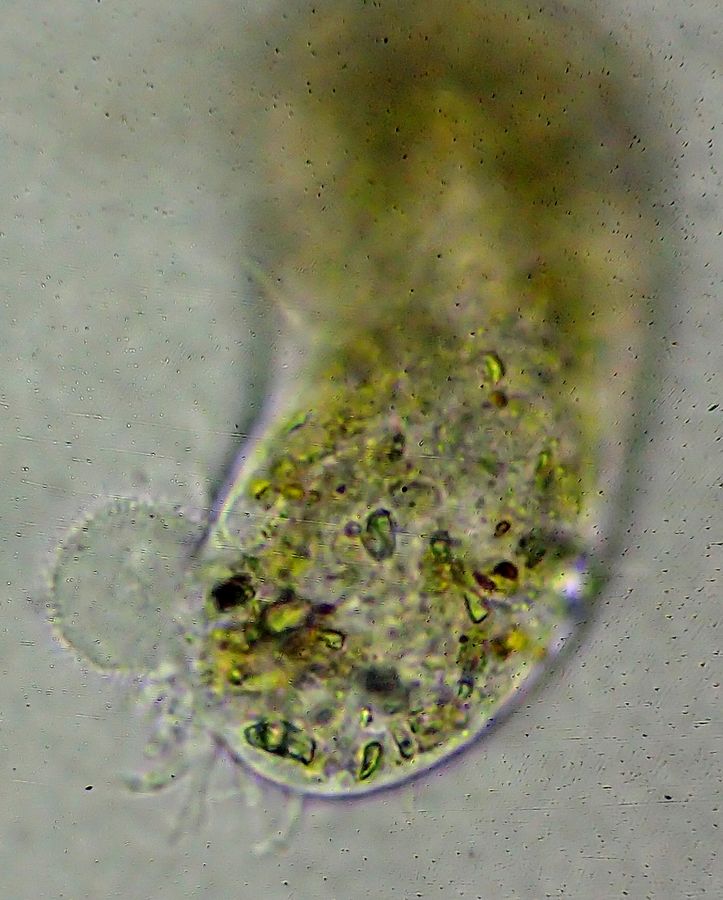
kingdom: Protozoa
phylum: Amoebozoa
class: Lobosa
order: Amoebida
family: Pelomyxidae
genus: Pelomyxa
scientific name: Pelomyxa
